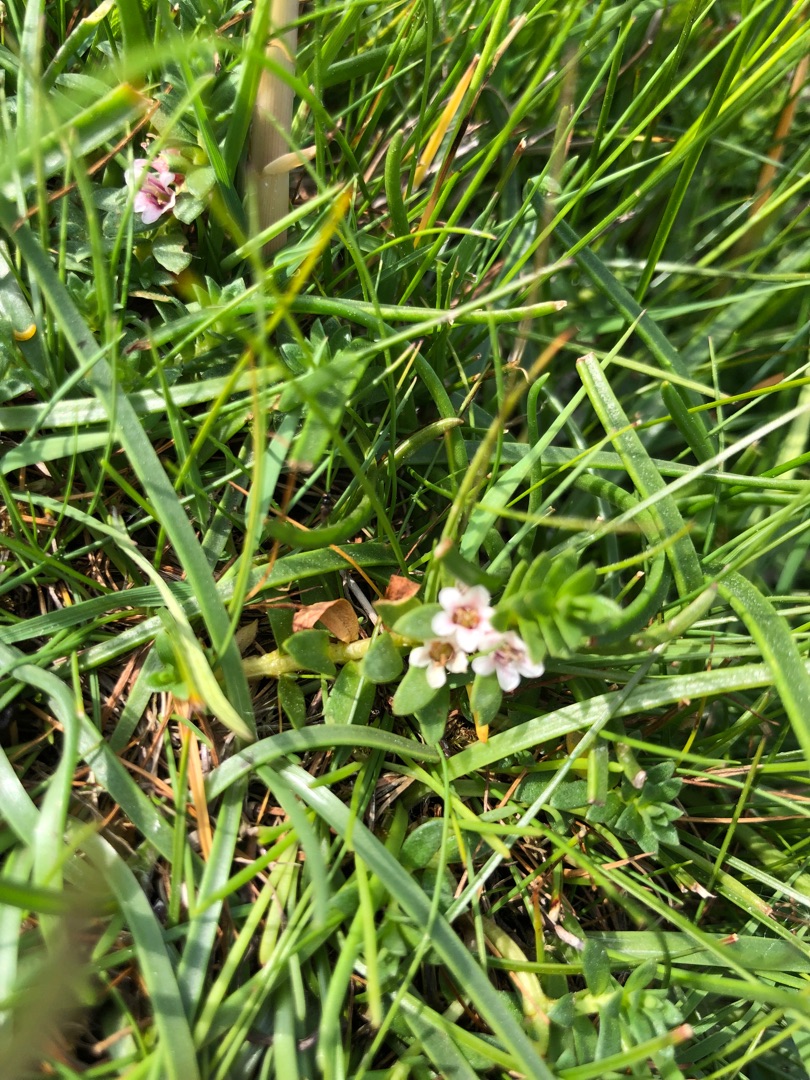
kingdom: Plantae
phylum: Tracheophyta
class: Magnoliopsida
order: Ericales
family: Primulaceae
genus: Lysimachia
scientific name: Lysimachia maritima
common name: Sandkryb
